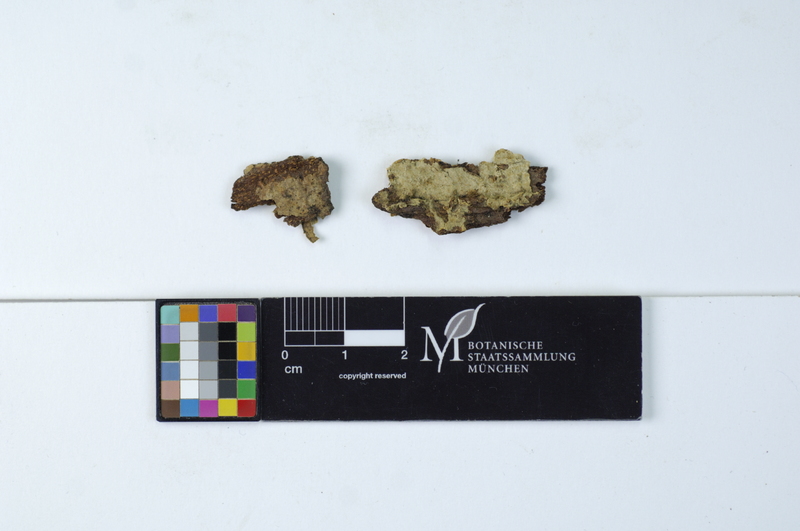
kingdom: Fungi
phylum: Basidiomycota
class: Agaricomycetes
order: Cantharellales
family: Botryobasidiaceae
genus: Botryobasidium
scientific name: Botryobasidium obtusisporum
